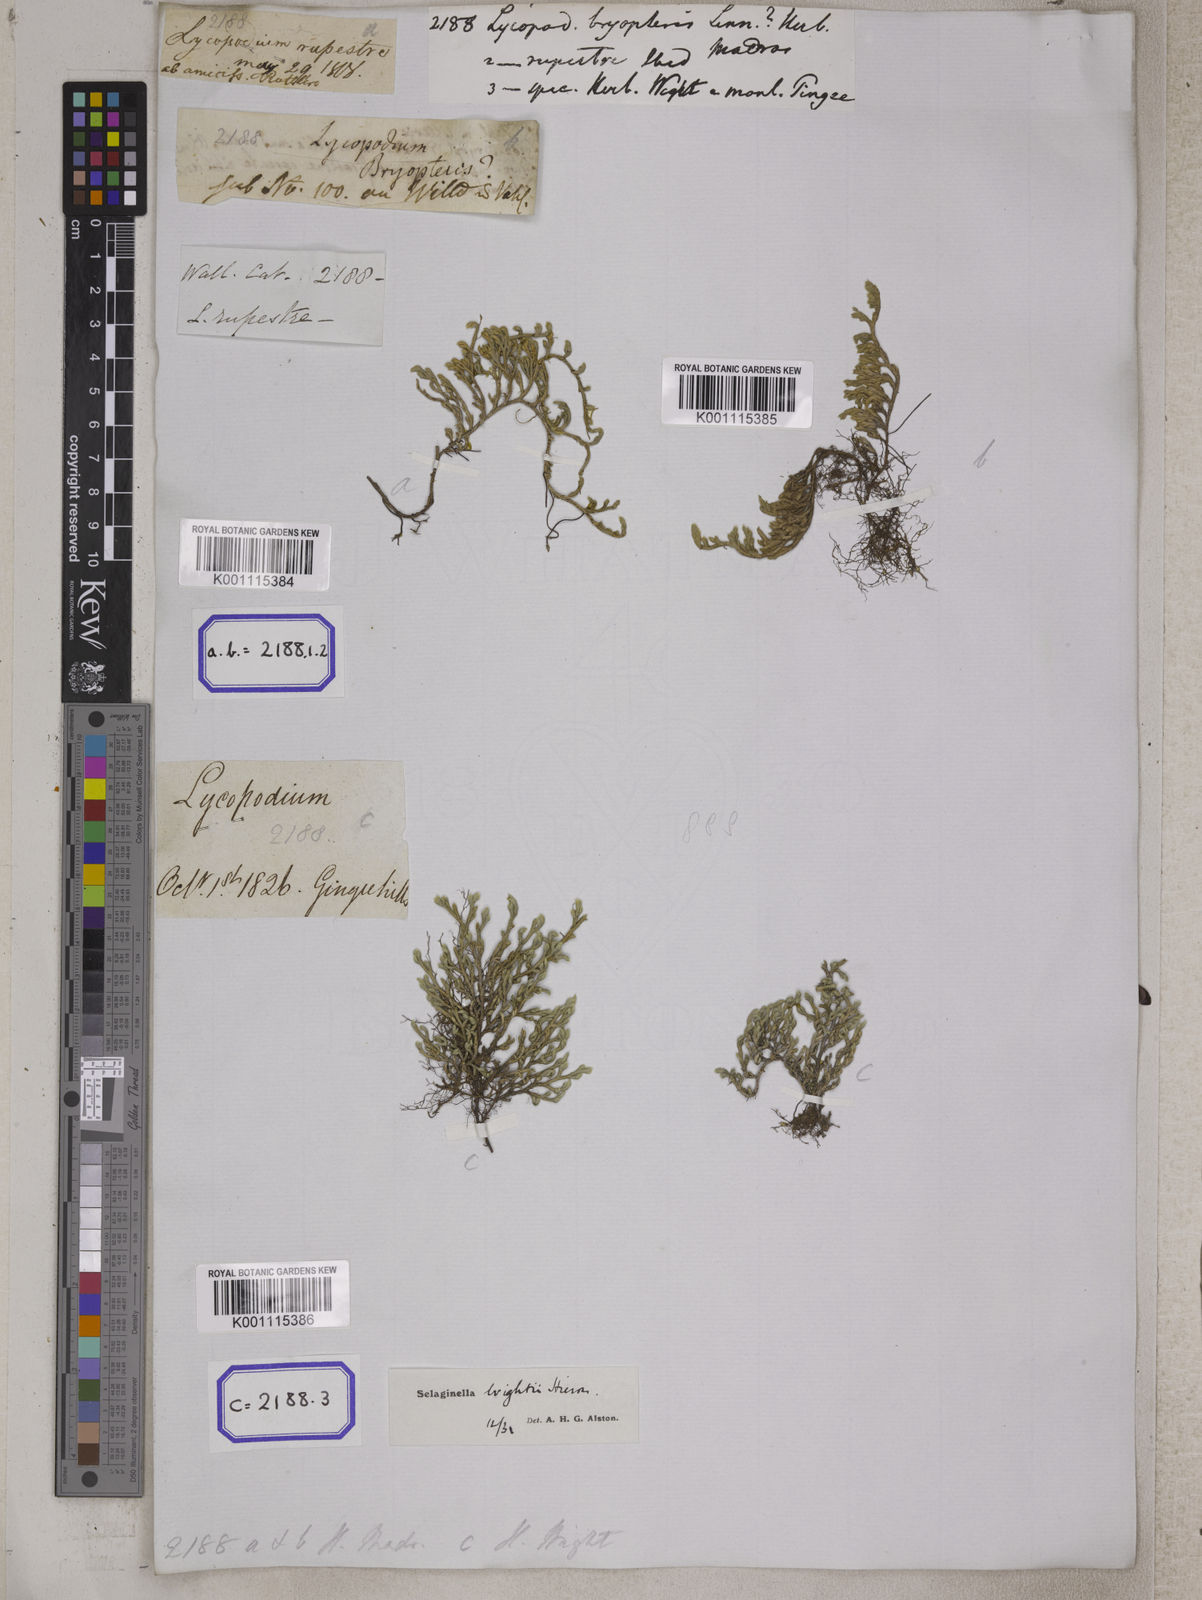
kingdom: Plantae
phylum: Tracheophyta
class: Lycopodiopsida
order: Selaginellales
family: Selaginellaceae
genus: Selaginella
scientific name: Selaginella bryopteris
